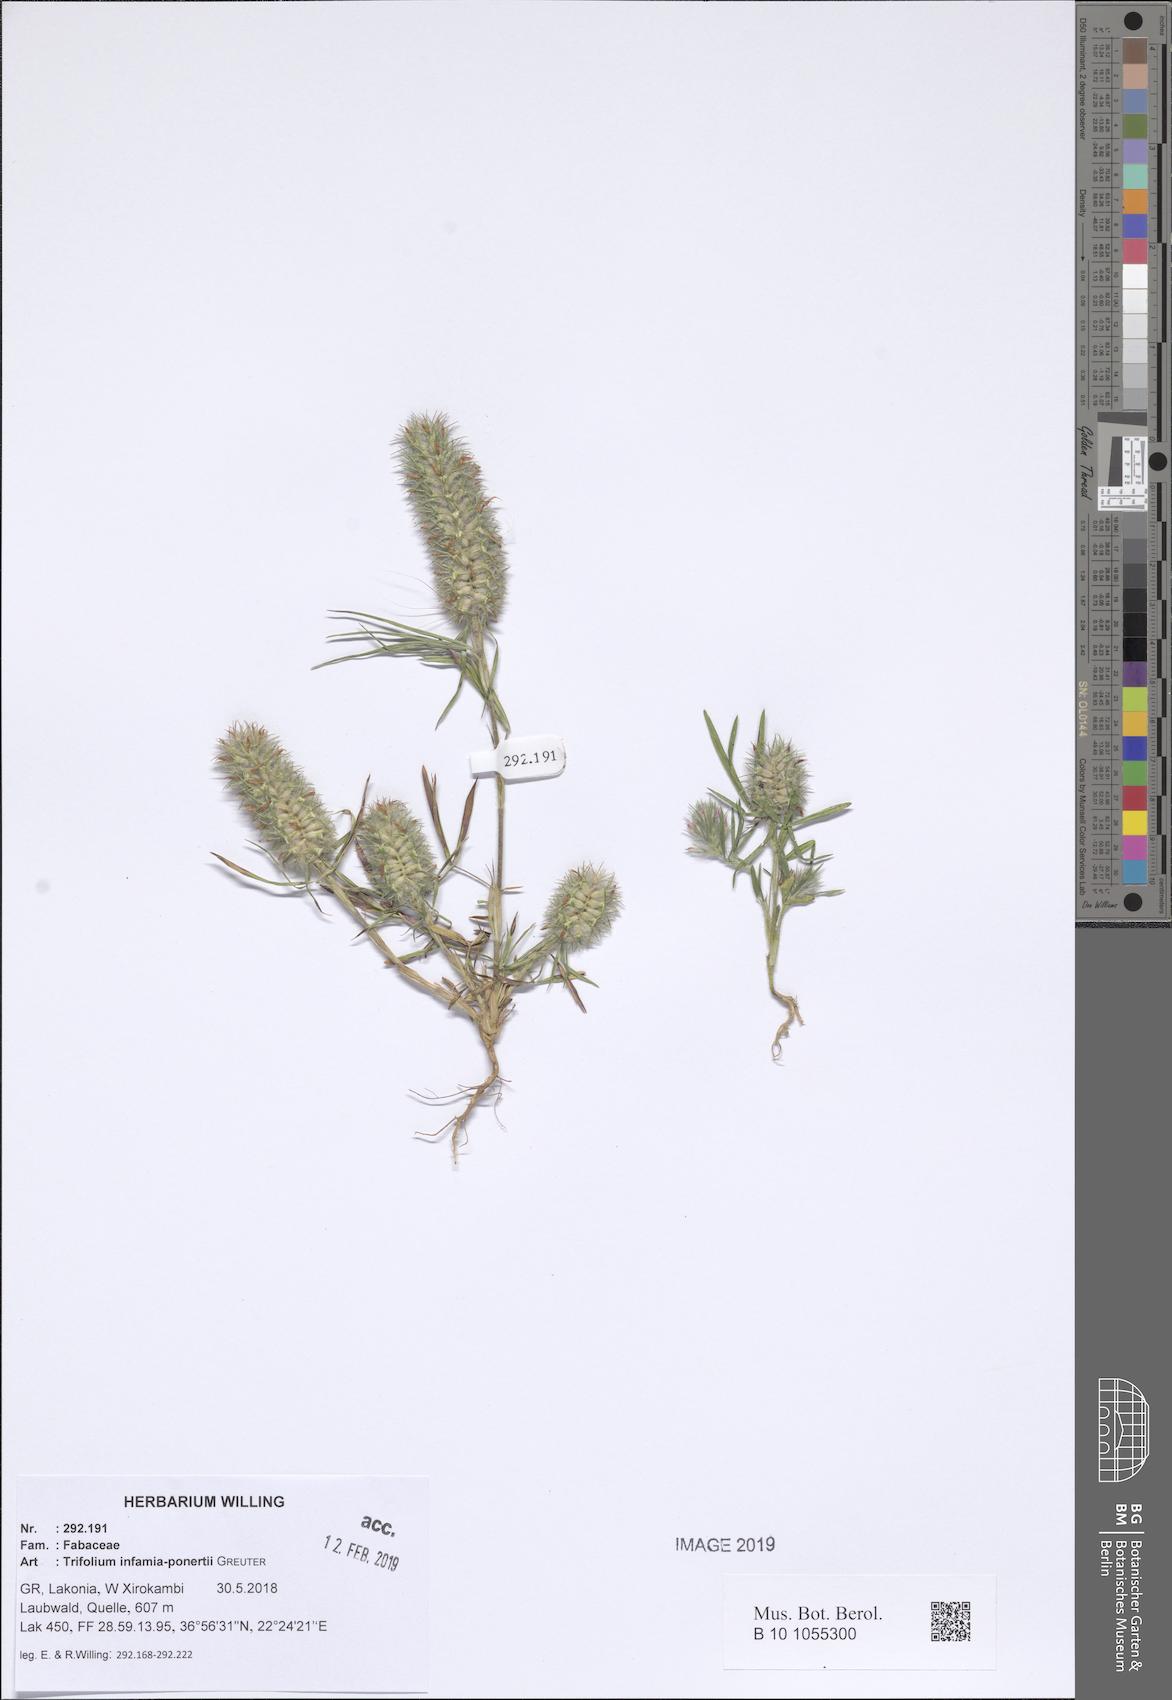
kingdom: Plantae
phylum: Tracheophyta
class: Magnoliopsida
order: Fabales
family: Fabaceae
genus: Trifolium
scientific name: Trifolium infamia-ponertii
